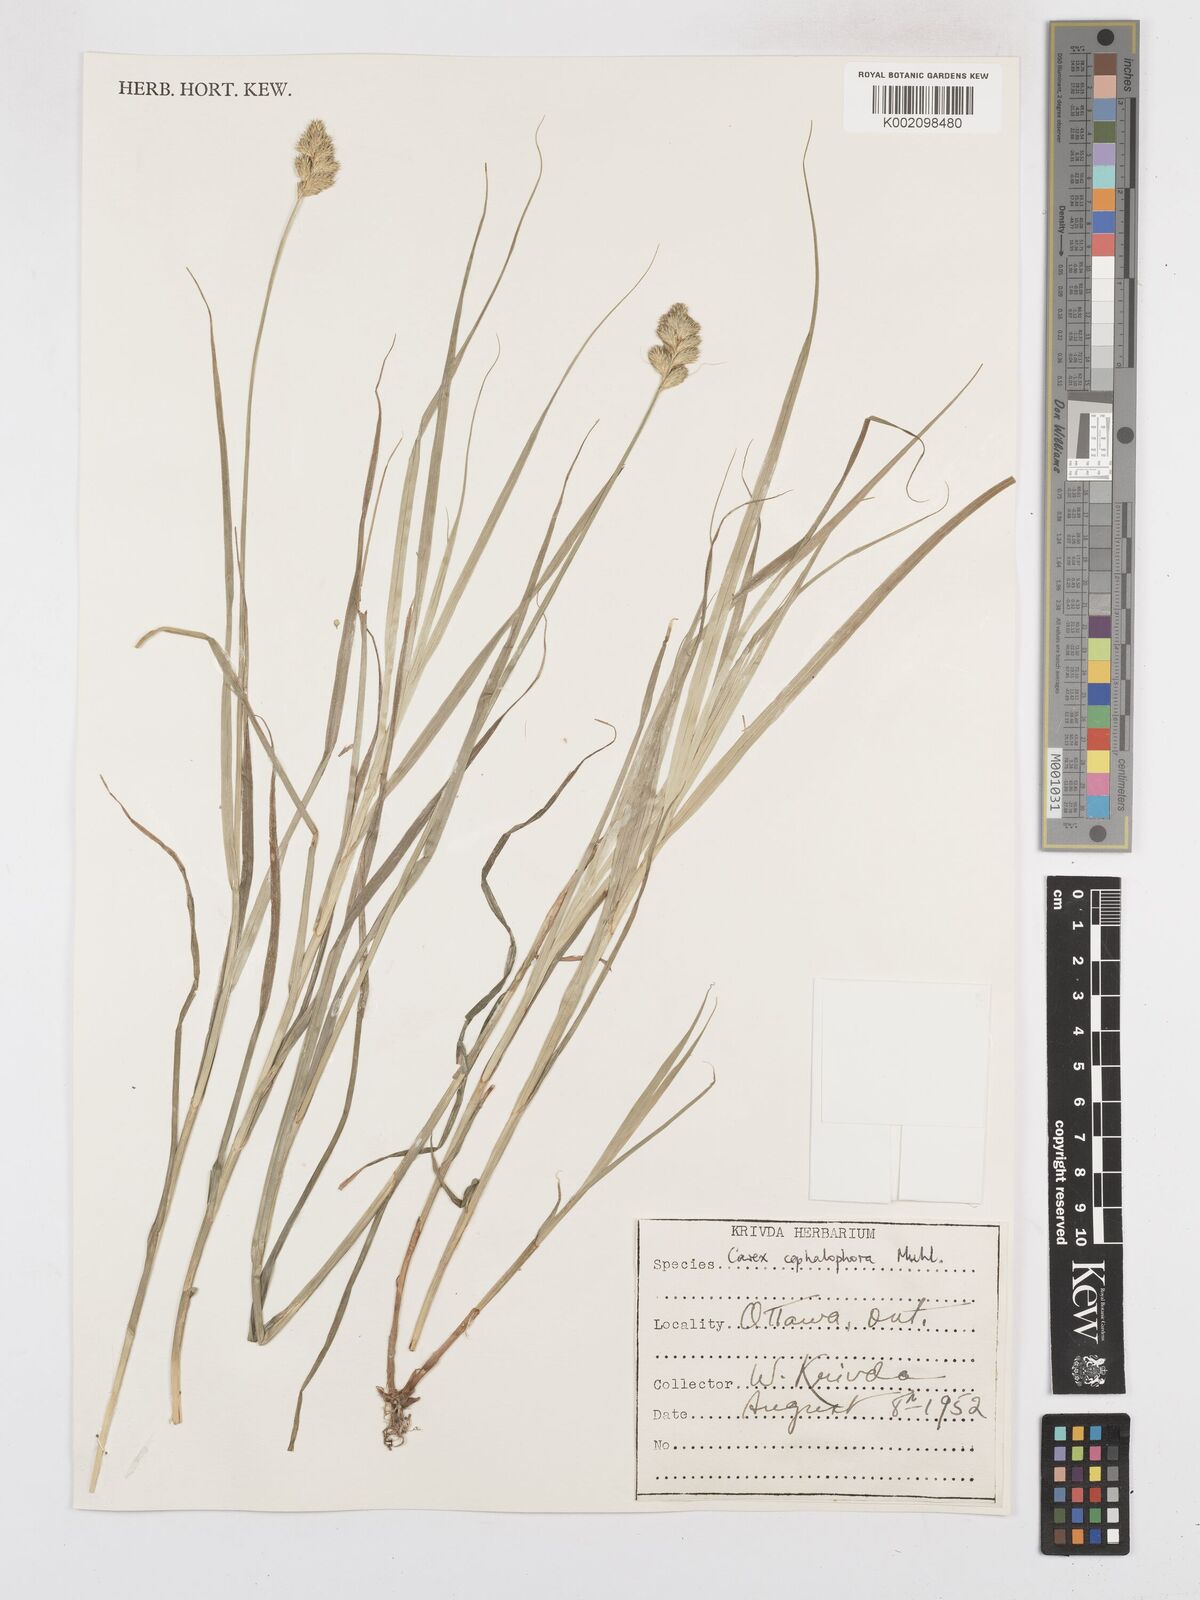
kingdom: Plantae
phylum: Tracheophyta
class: Liliopsida
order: Poales
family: Cyperaceae
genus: Carex
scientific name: Carex cephalophora
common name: Oval-headed sedge
